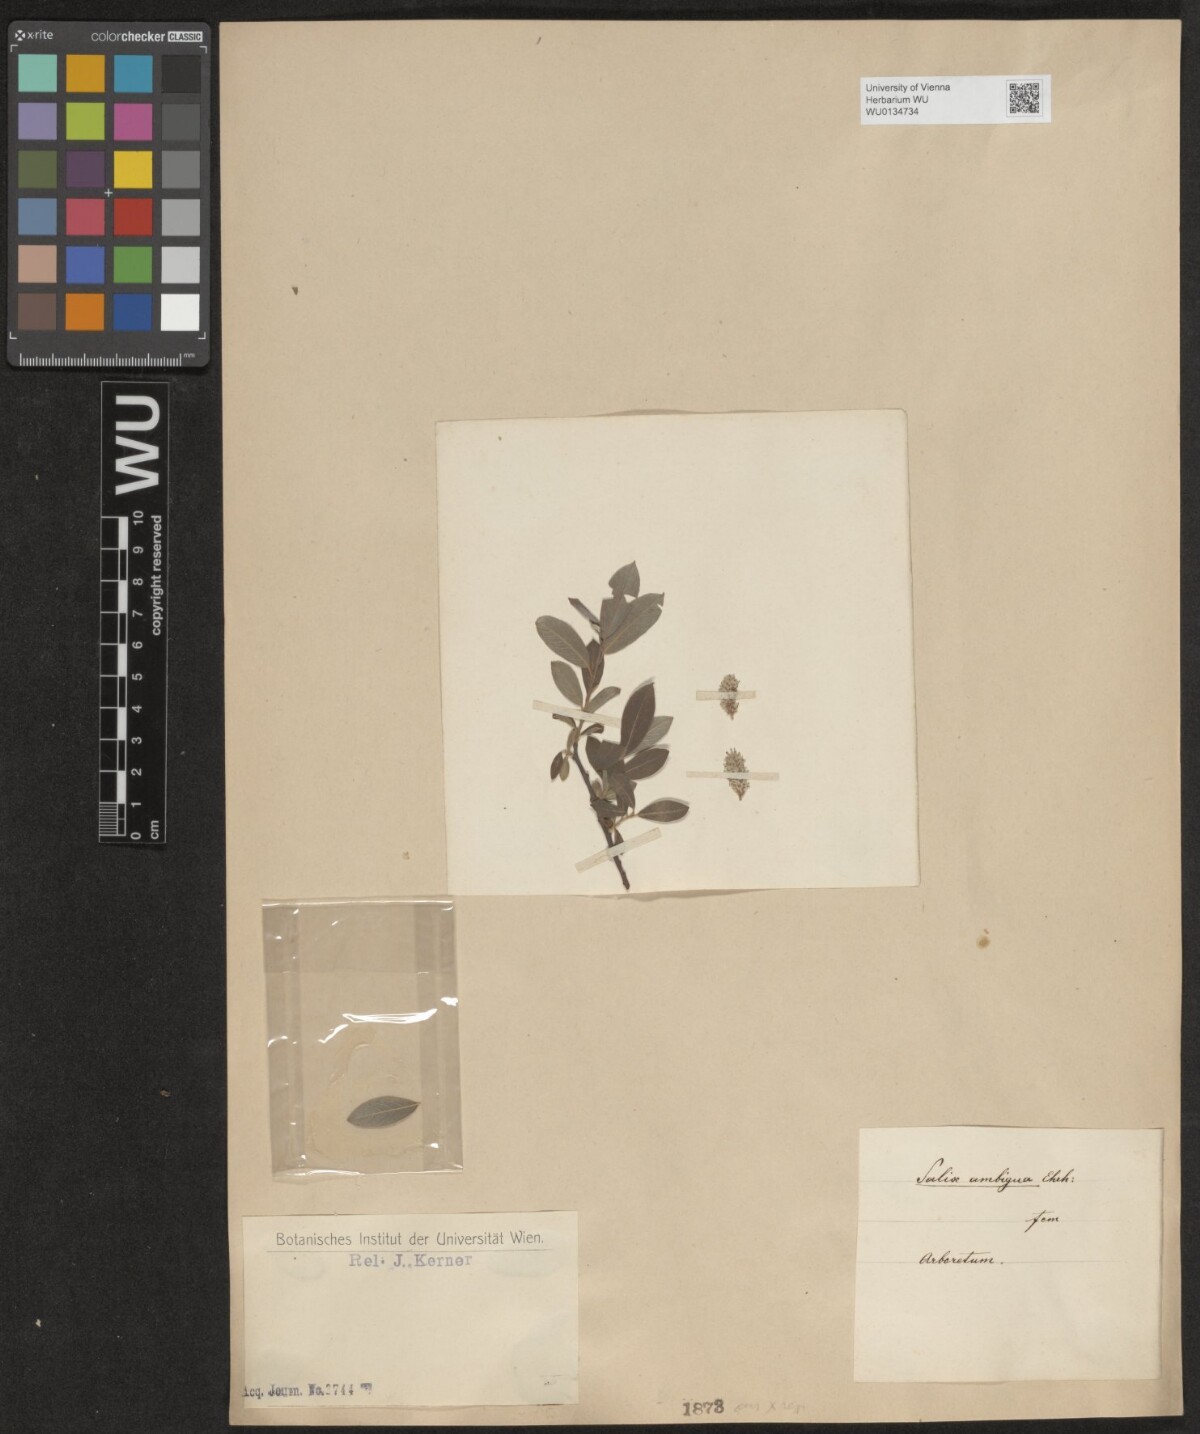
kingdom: Plantae
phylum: Tracheophyta
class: Magnoliopsida
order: Malpighiales
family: Salicaceae
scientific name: Salicaceae
